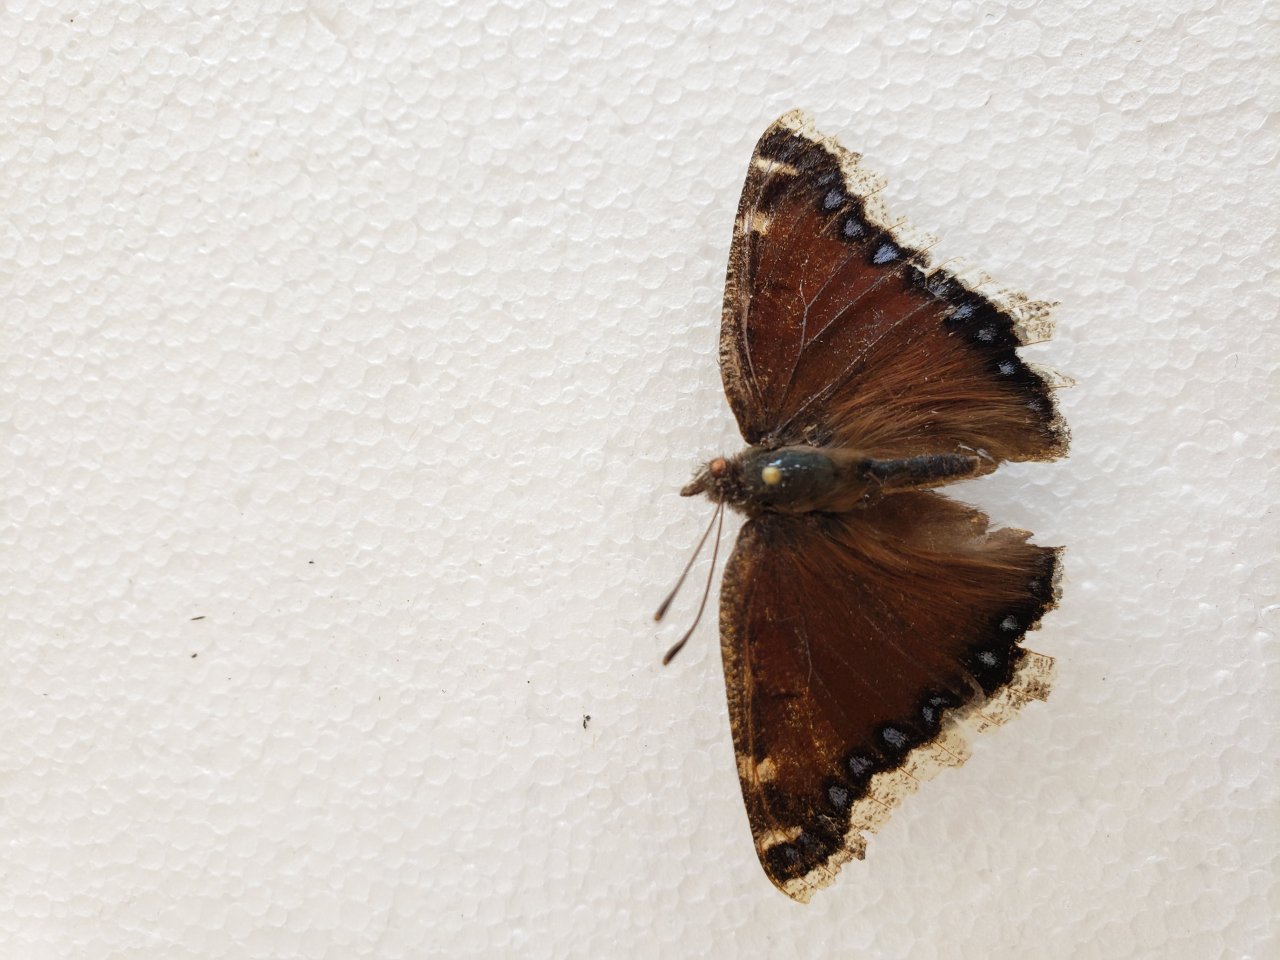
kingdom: Animalia
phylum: Arthropoda
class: Insecta
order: Lepidoptera
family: Nymphalidae
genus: Nymphalis
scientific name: Nymphalis antiopa
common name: Mourning Cloak
